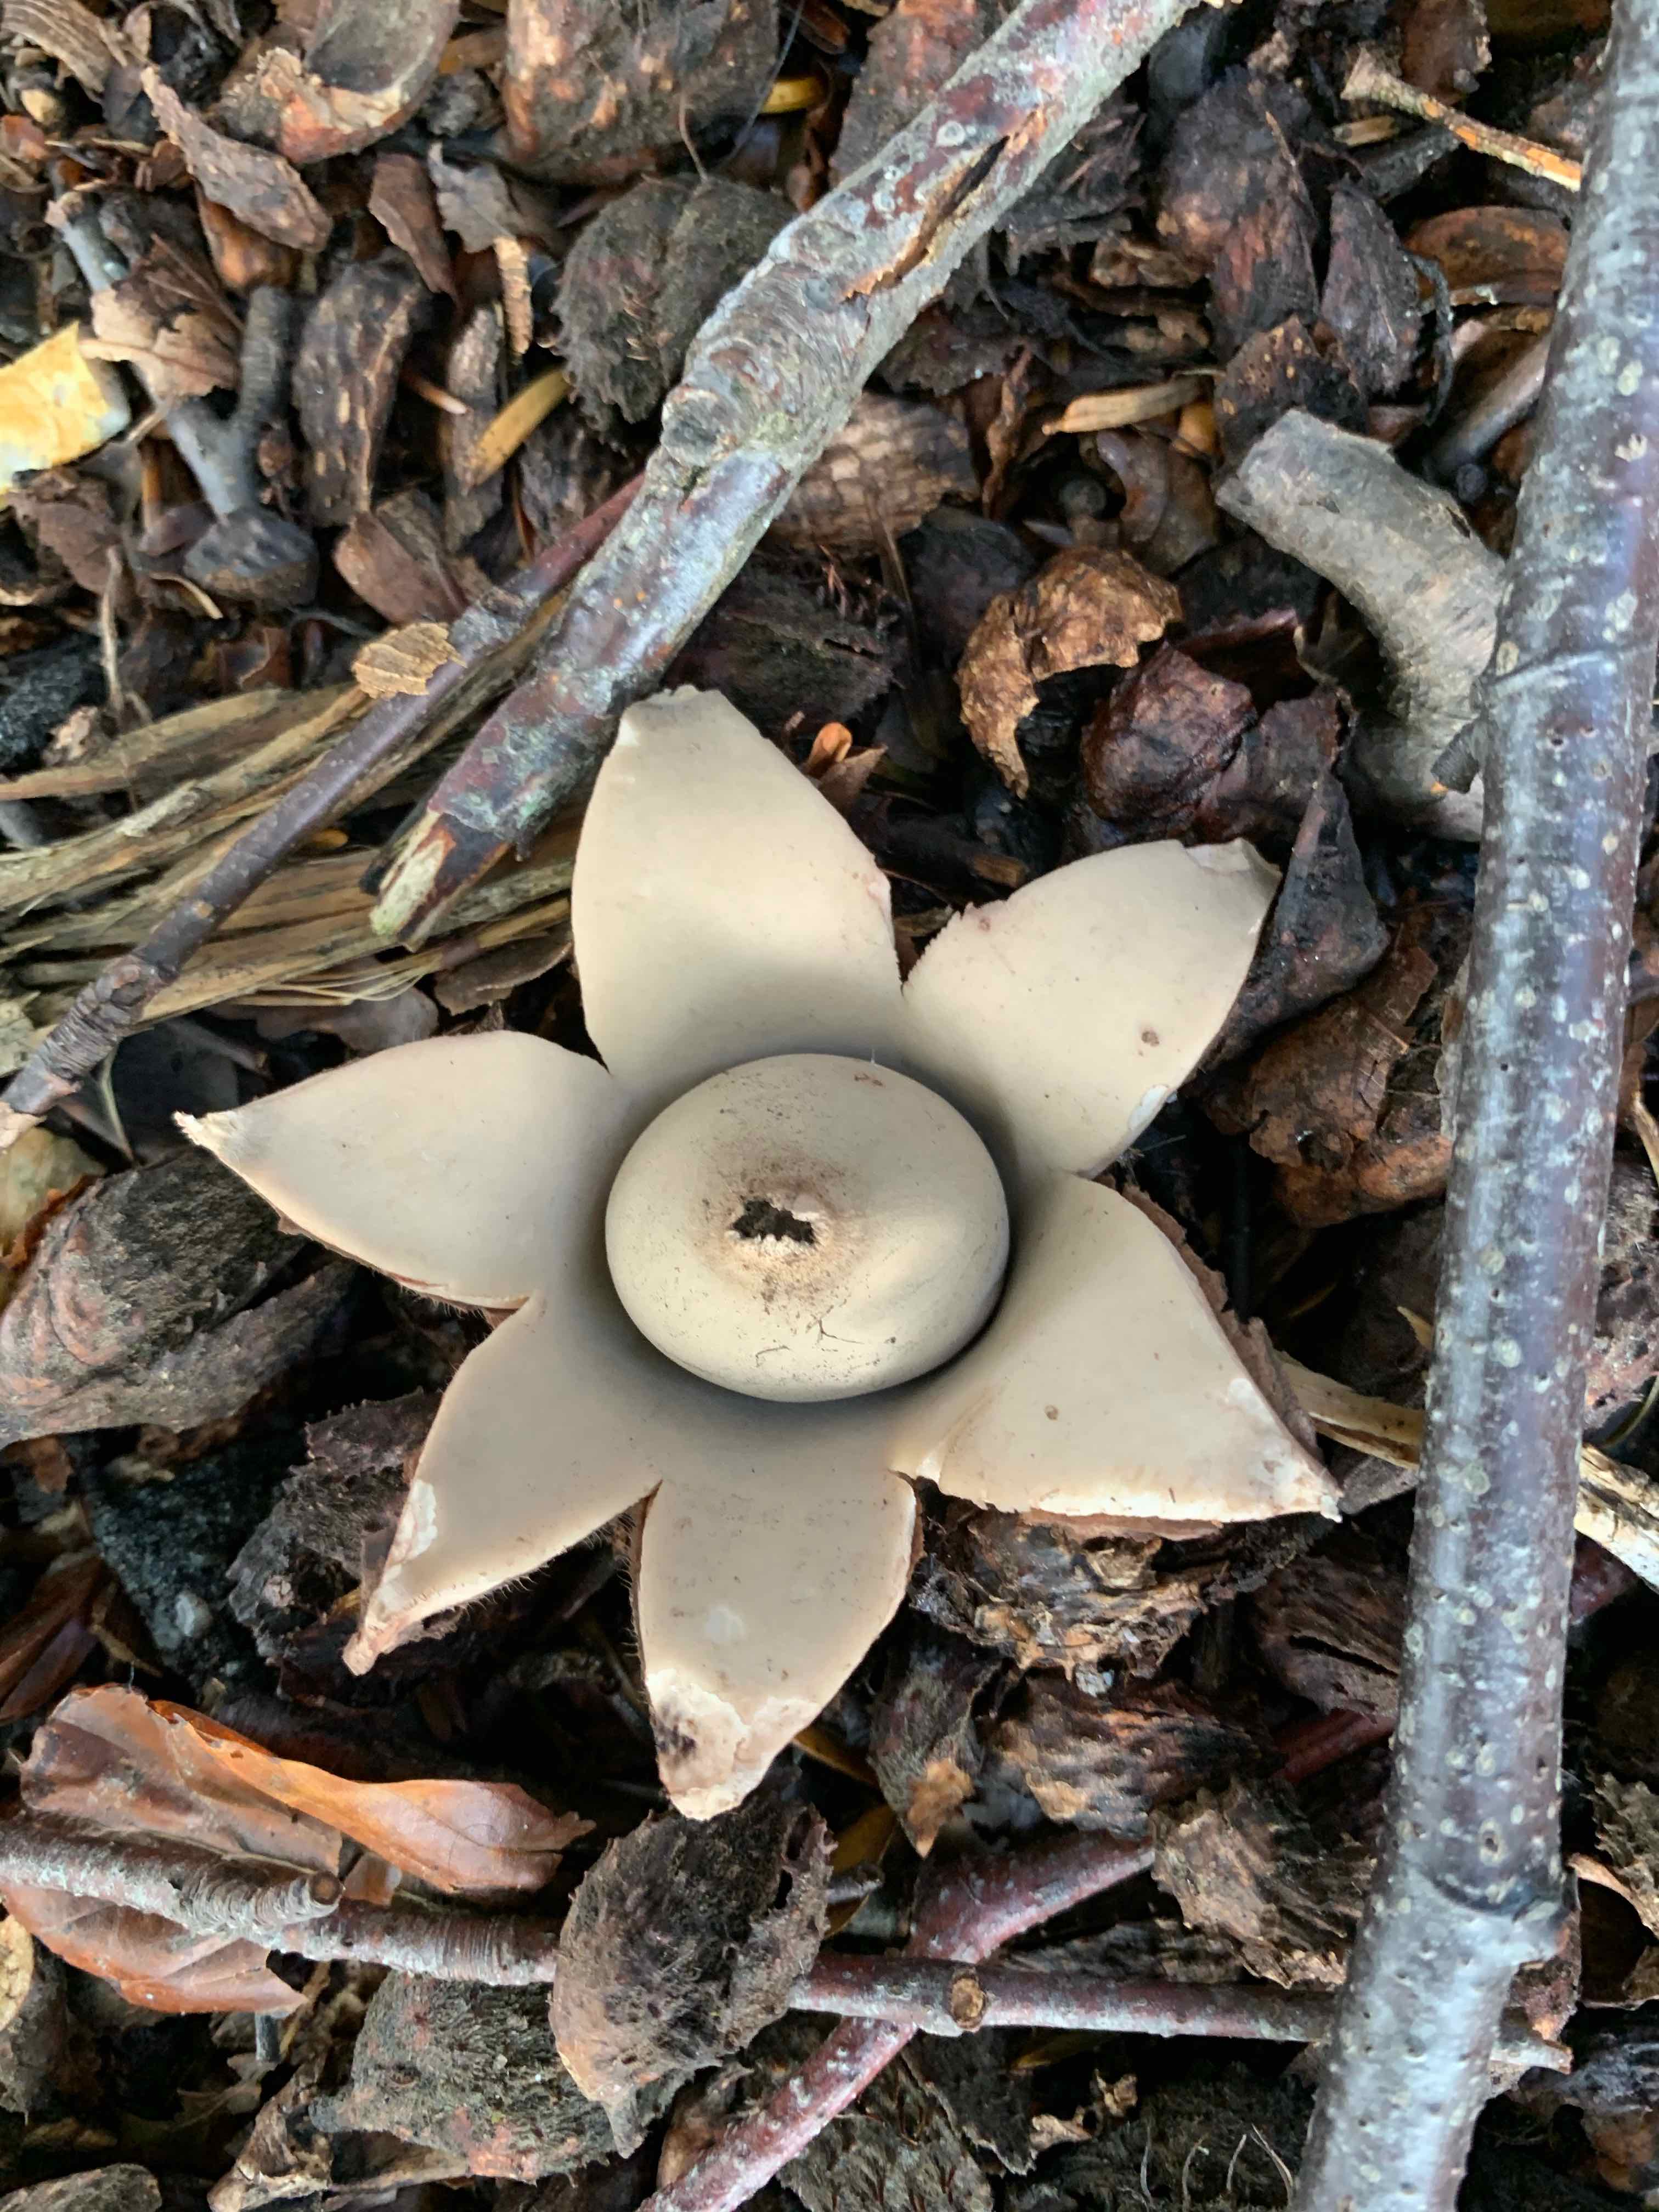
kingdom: Fungi
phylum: Basidiomycota
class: Agaricomycetes
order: Geastrales
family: Geastraceae
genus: Geastrum
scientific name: Geastrum michelianum
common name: kødet stjernebold
